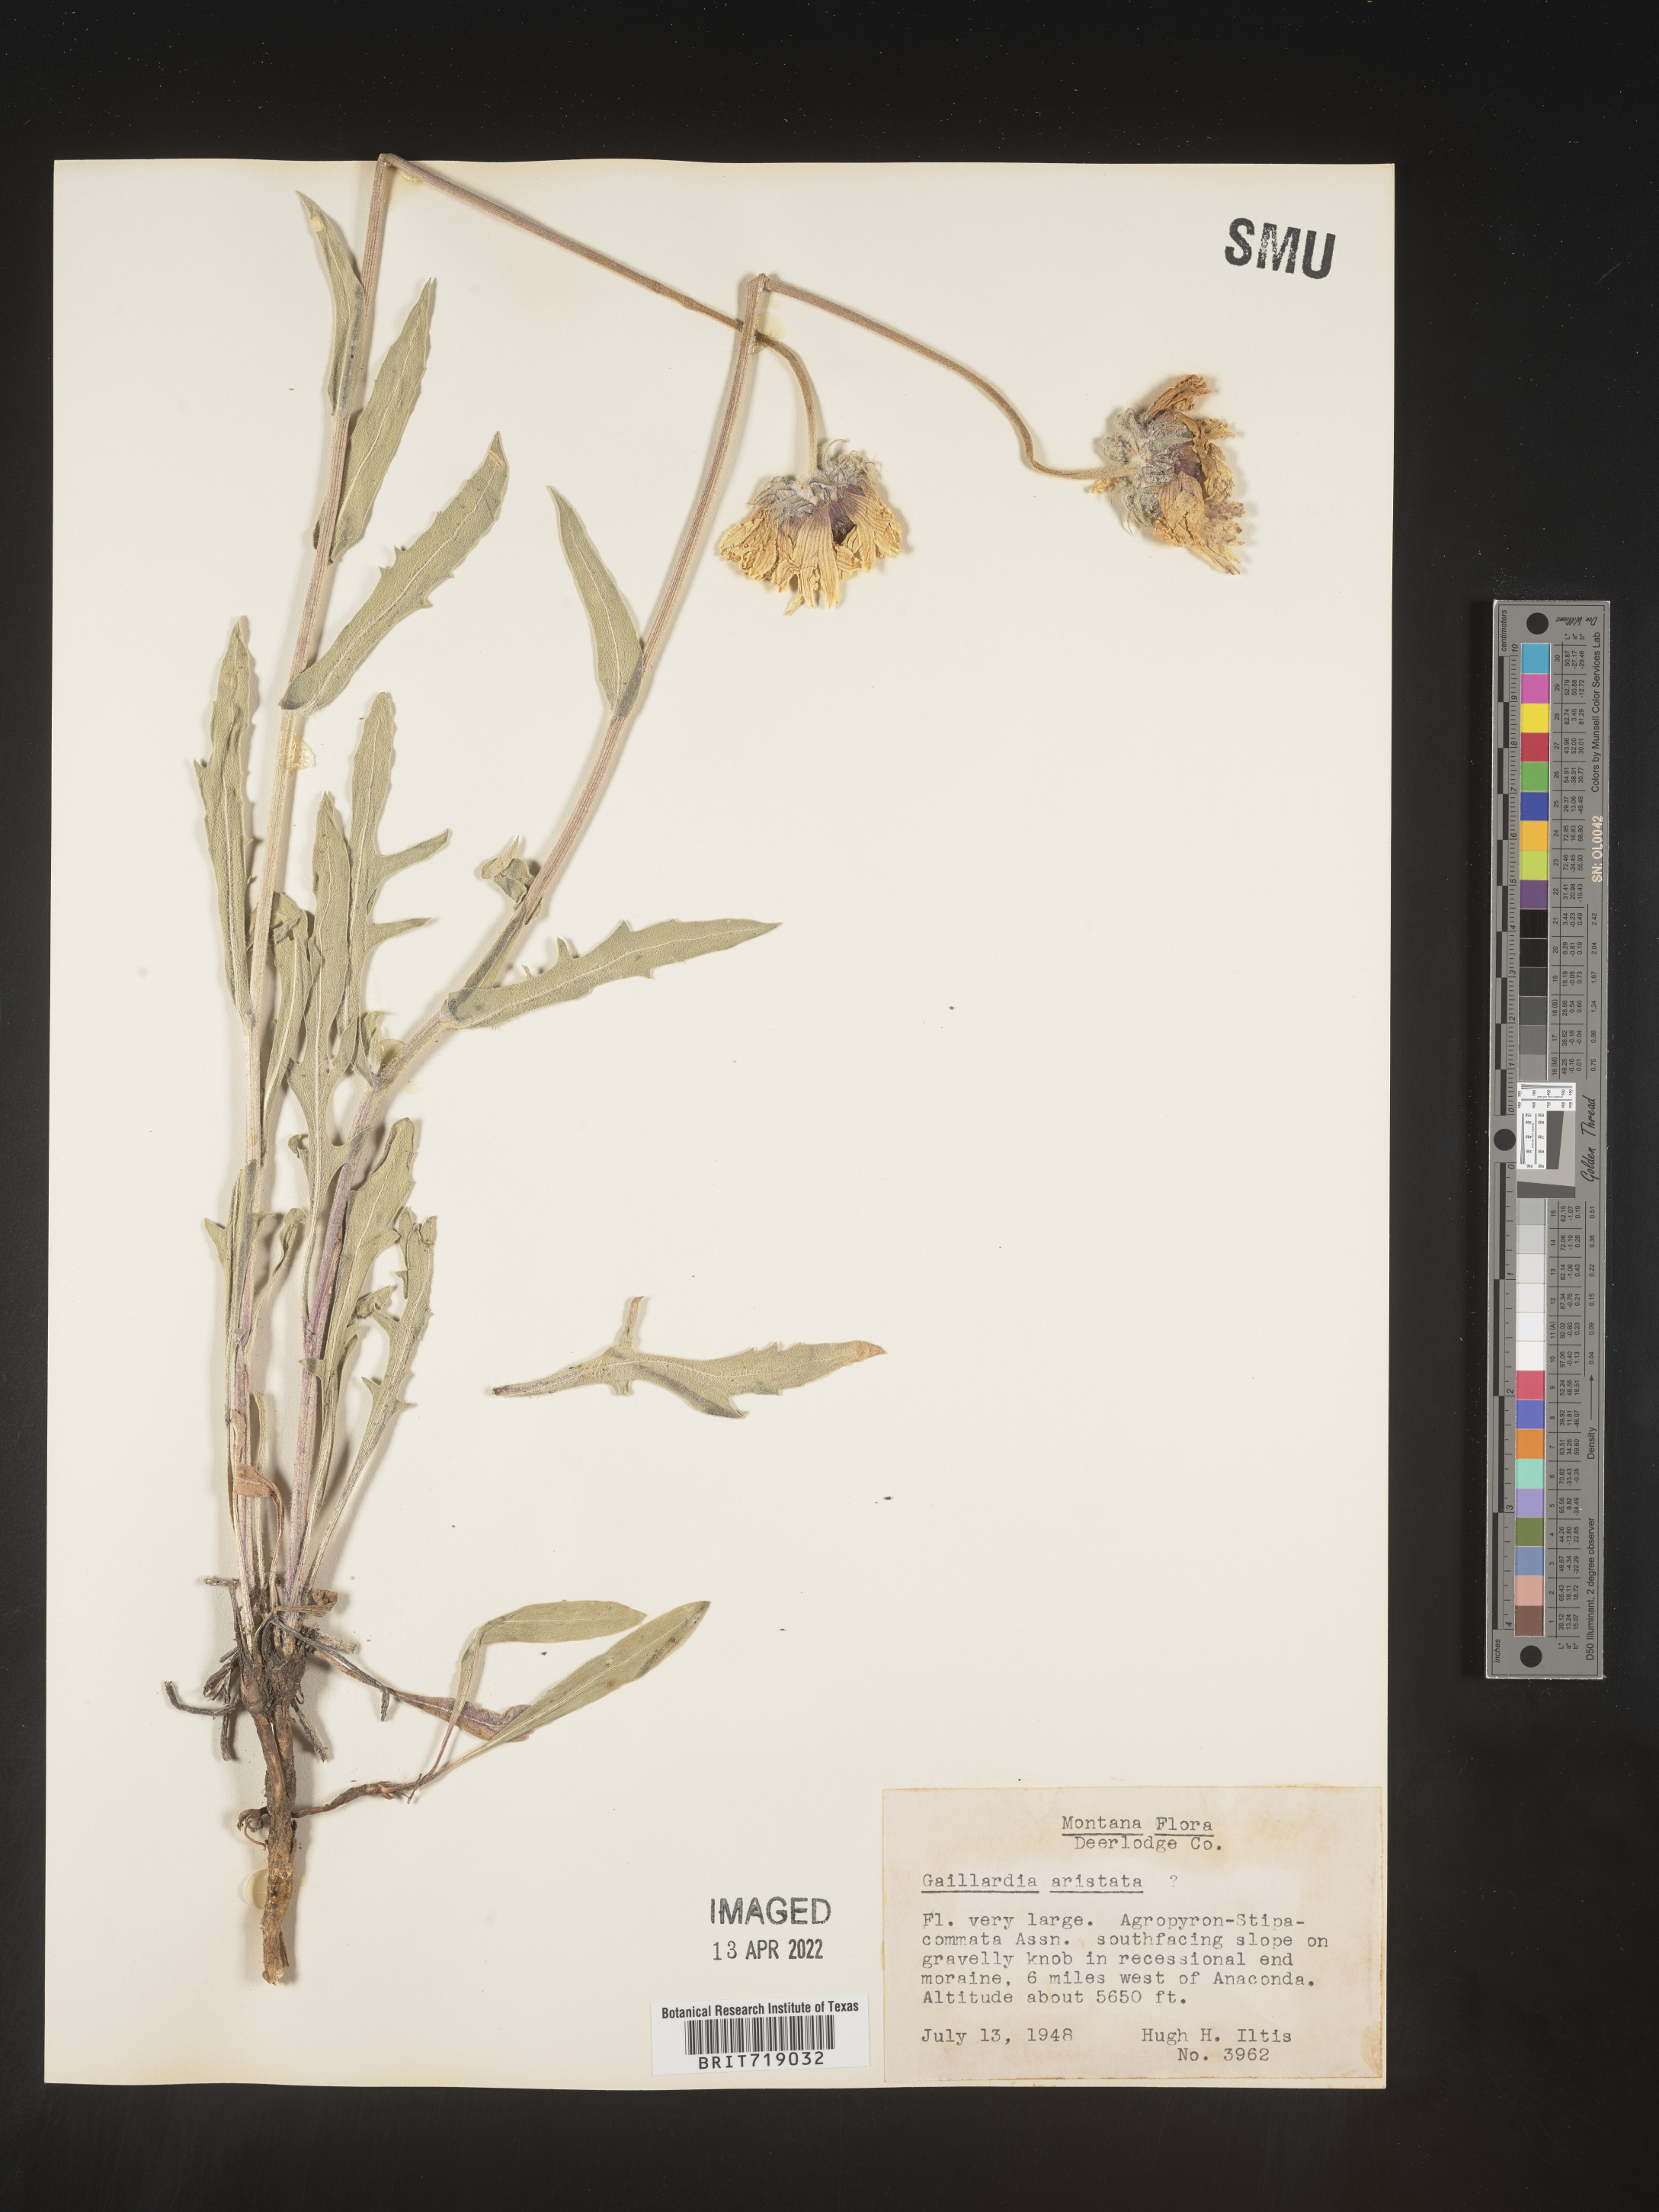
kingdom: Plantae
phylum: Tracheophyta
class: Magnoliopsida
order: Asterales
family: Asteraceae
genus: Gaillardia
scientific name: Gaillardia aristata
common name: Blanket-flower
